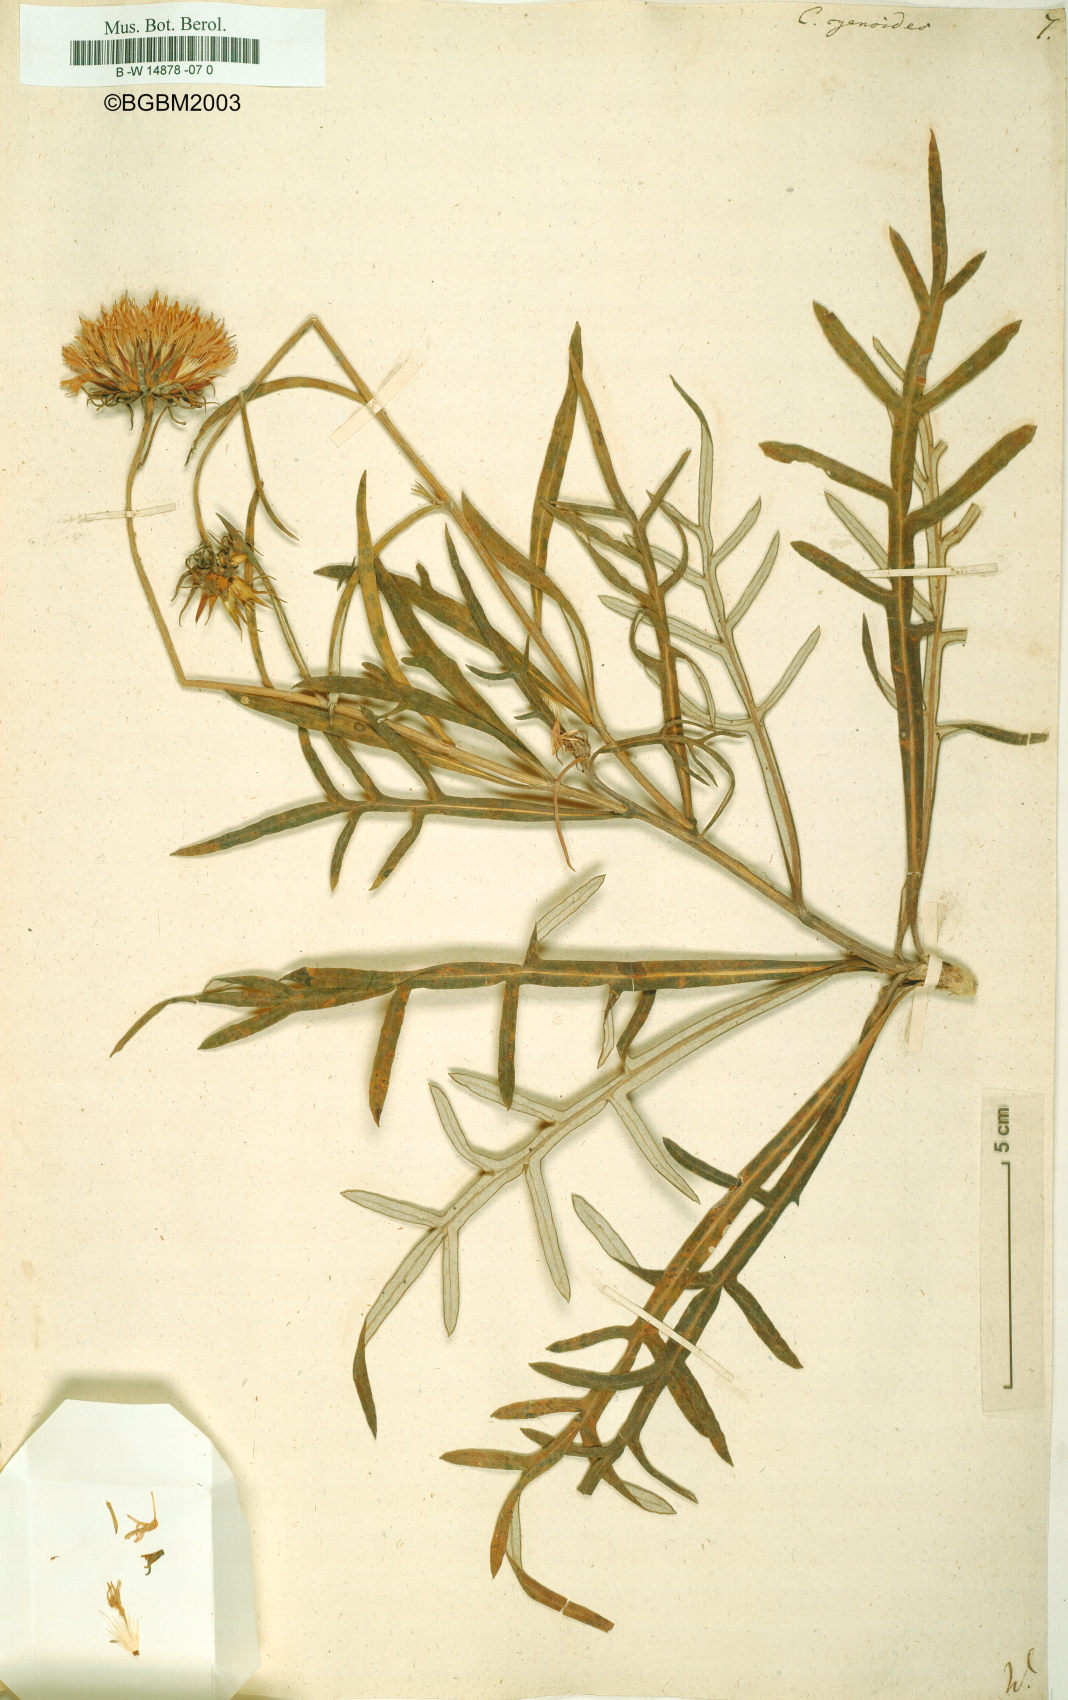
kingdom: Plantae
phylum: Tracheophyta
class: Magnoliopsida
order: Asterales
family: Asteraceae
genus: Jurinea
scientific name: Jurinea
